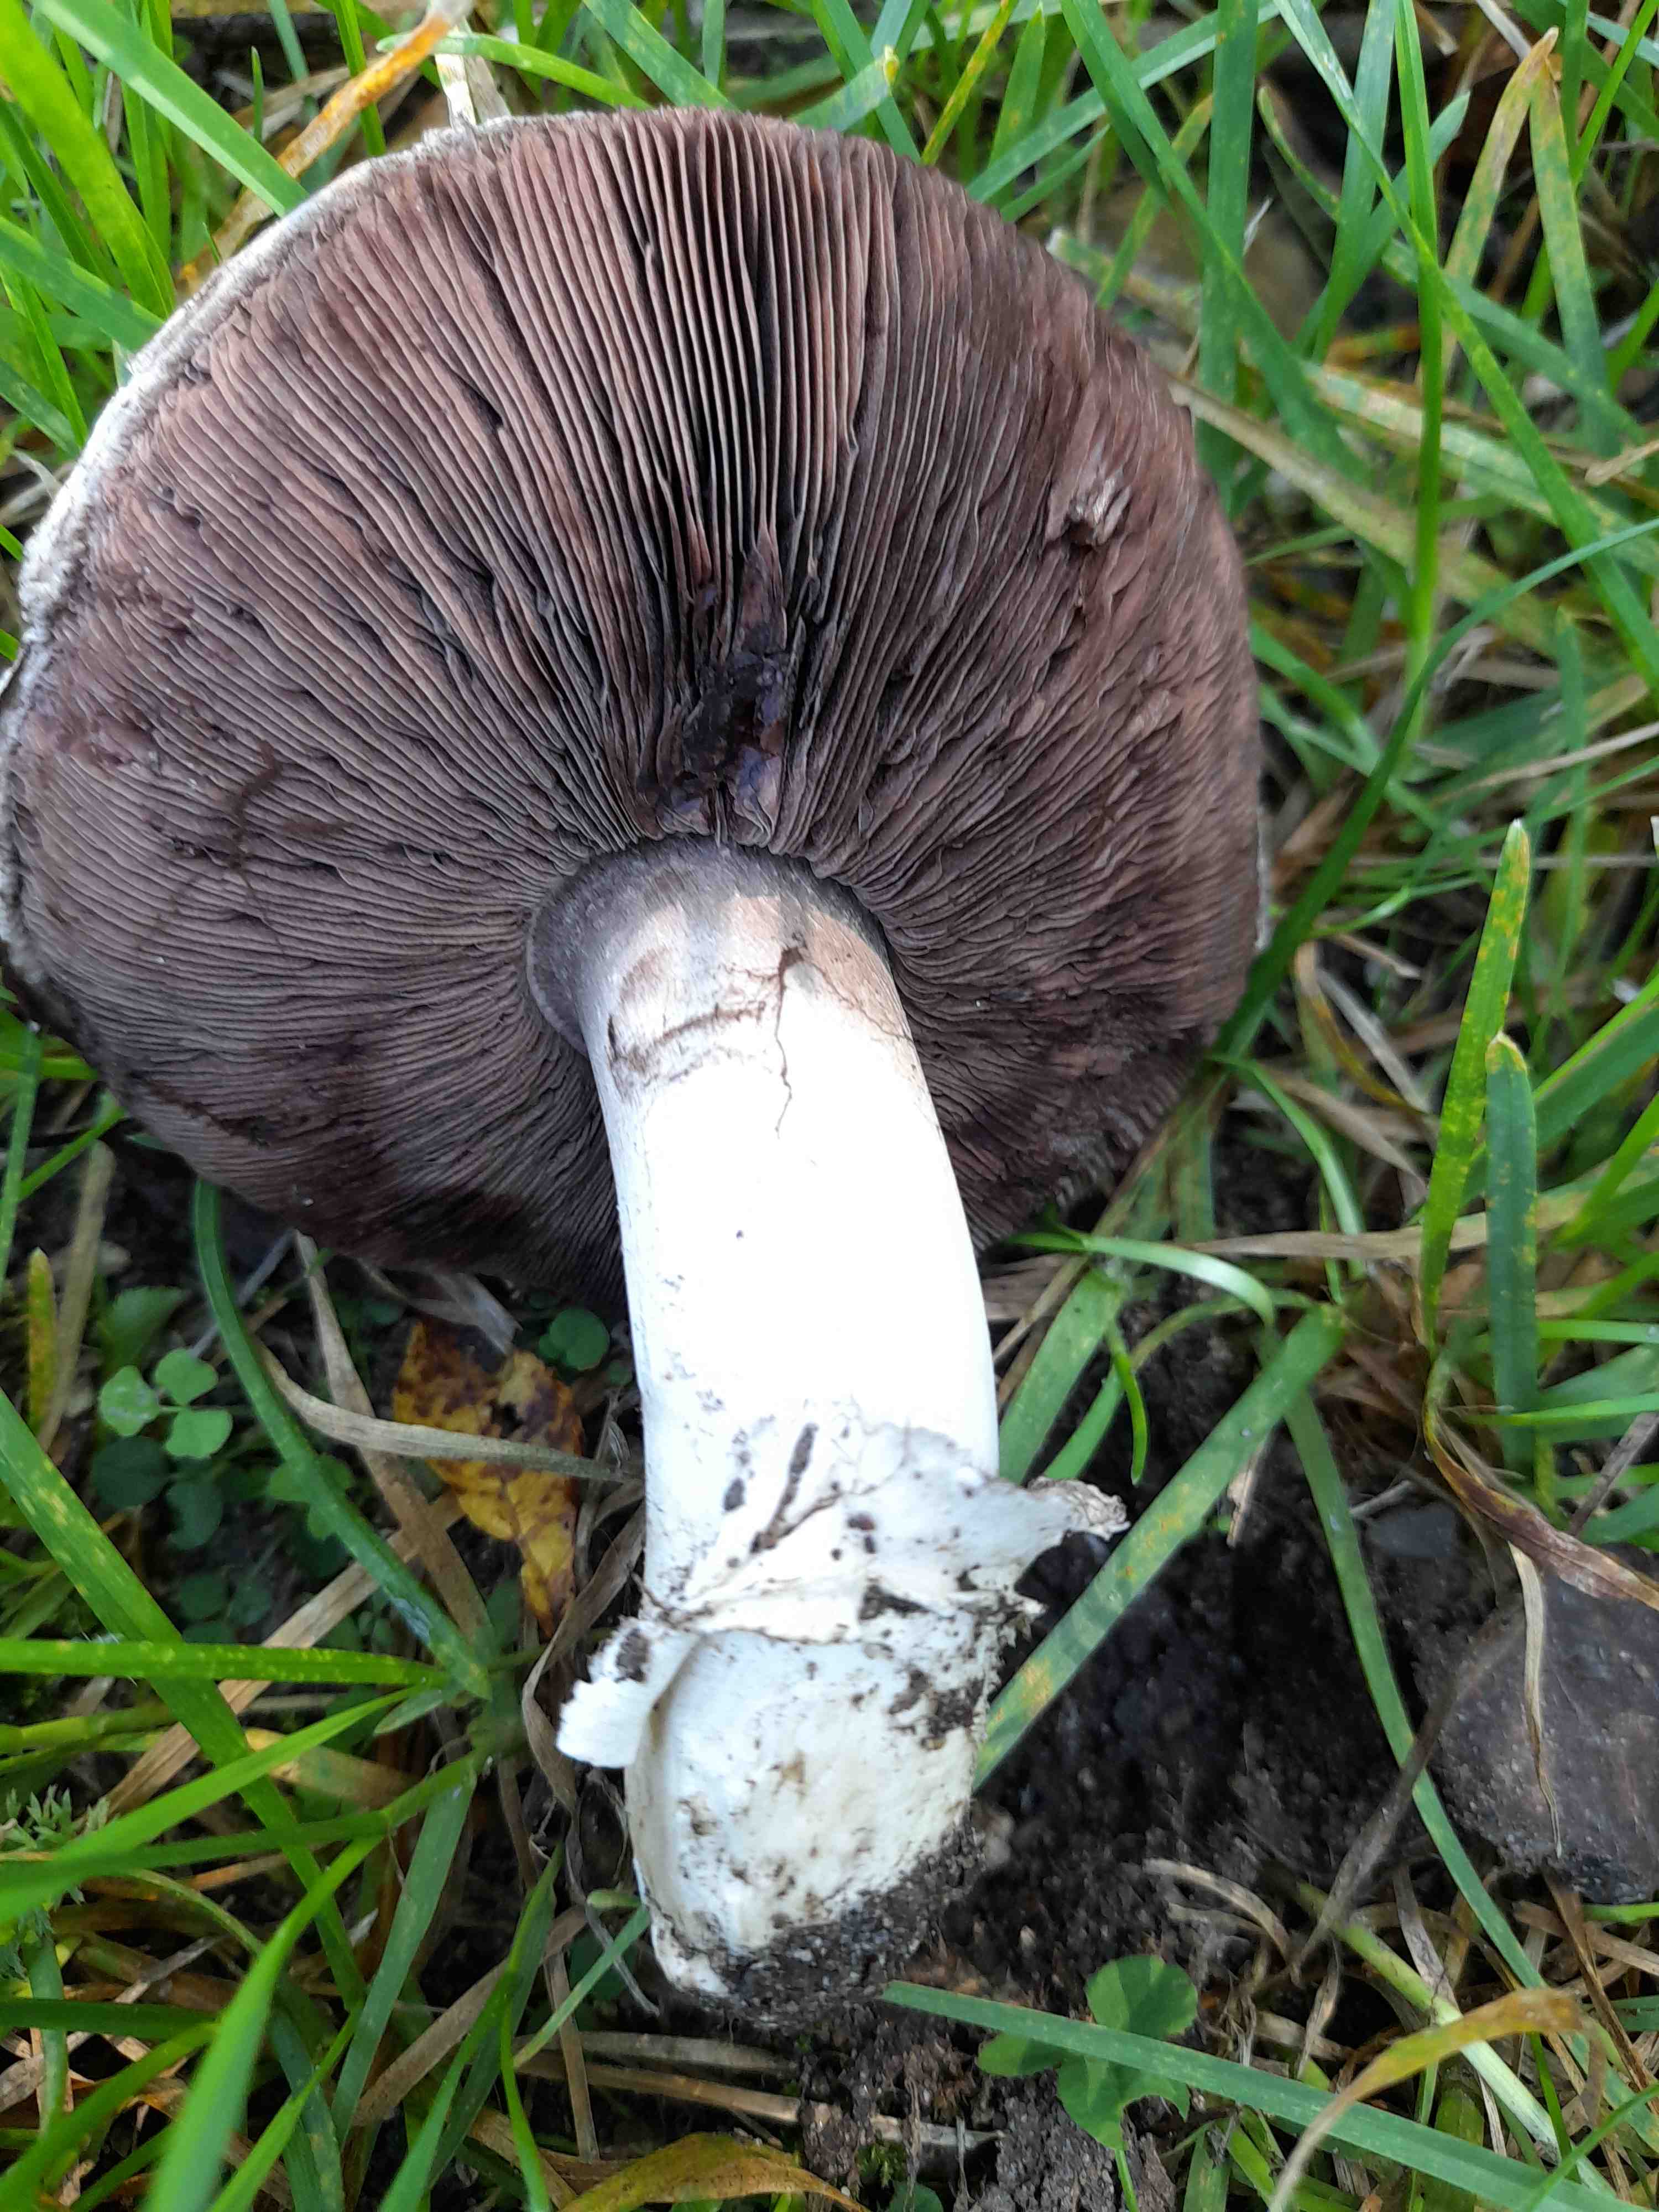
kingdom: Fungi
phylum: Basidiomycota
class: Agaricomycetes
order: Agaricales
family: Agaricaceae
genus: Agaricus
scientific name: Agaricus bitorquis
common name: vej-champignon
